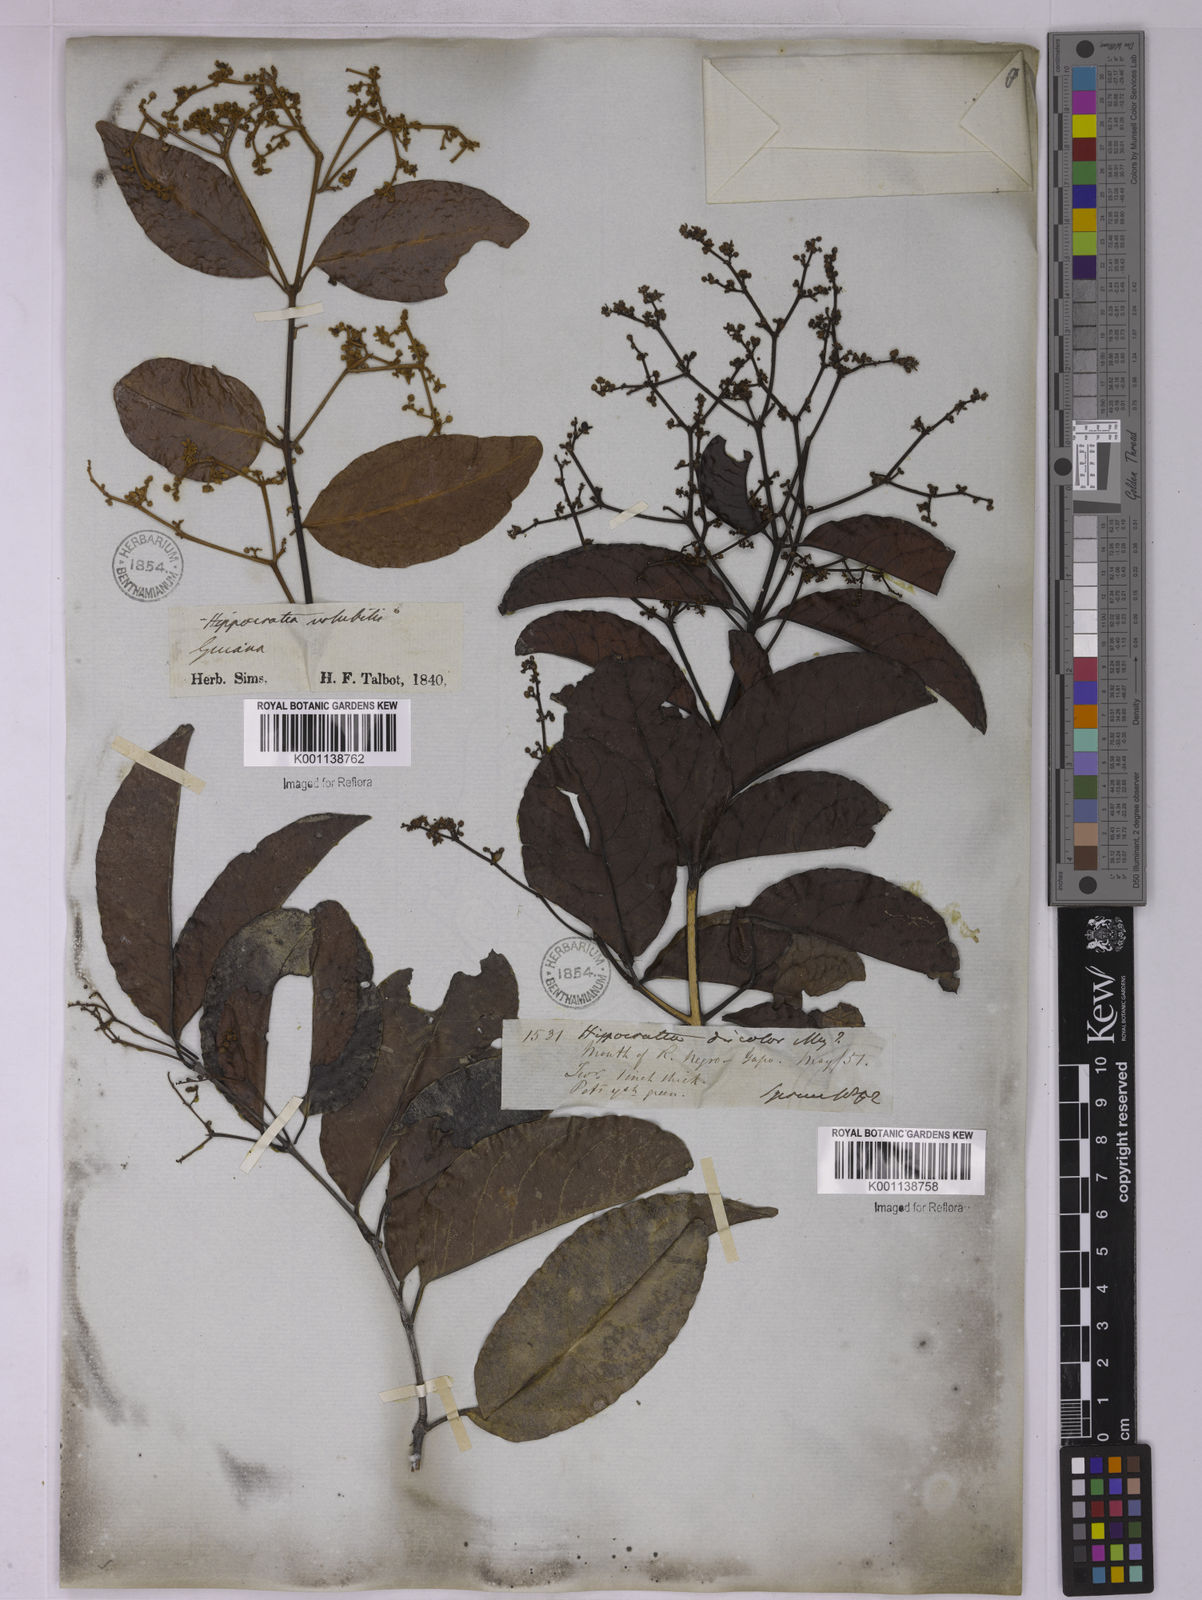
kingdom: Plantae
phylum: Tracheophyta
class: Magnoliopsida
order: Celastrales
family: Celastraceae
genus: Hippocratea
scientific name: Hippocratea volubilis
